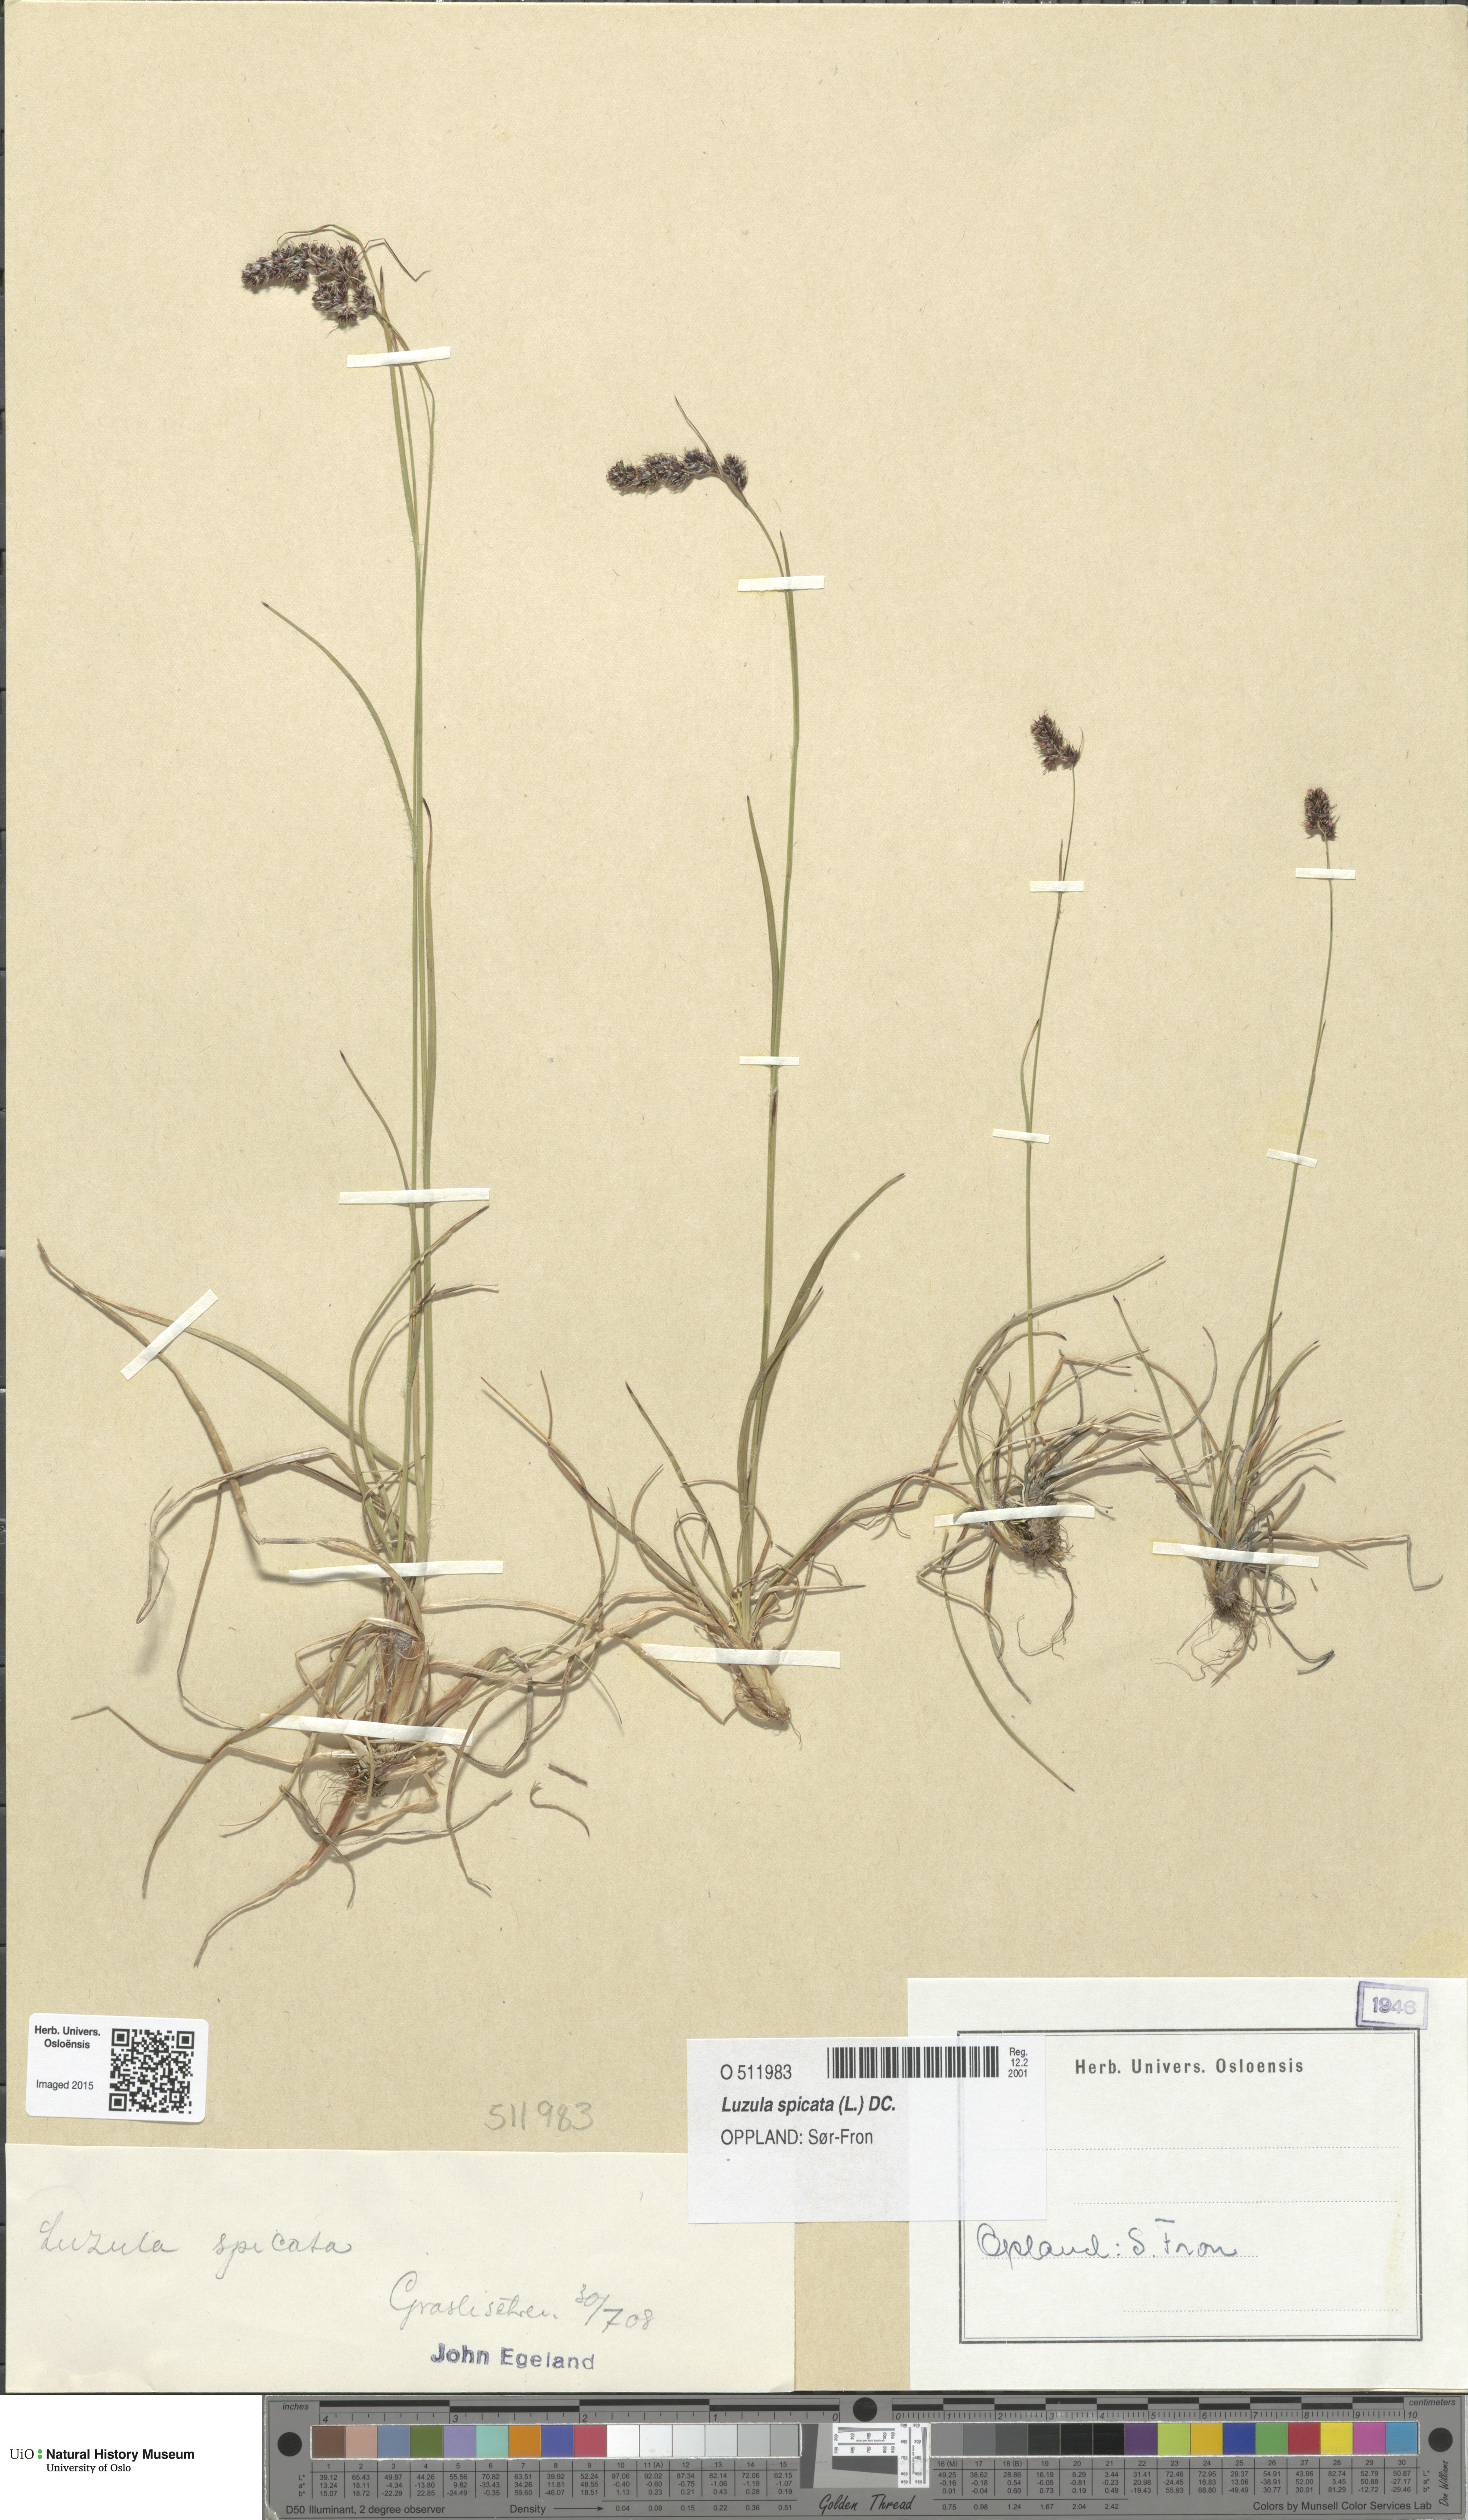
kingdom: Plantae
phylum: Tracheophyta
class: Liliopsida
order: Poales
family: Juncaceae
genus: Luzula
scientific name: Luzula spicata
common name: Spiked wood-rush
